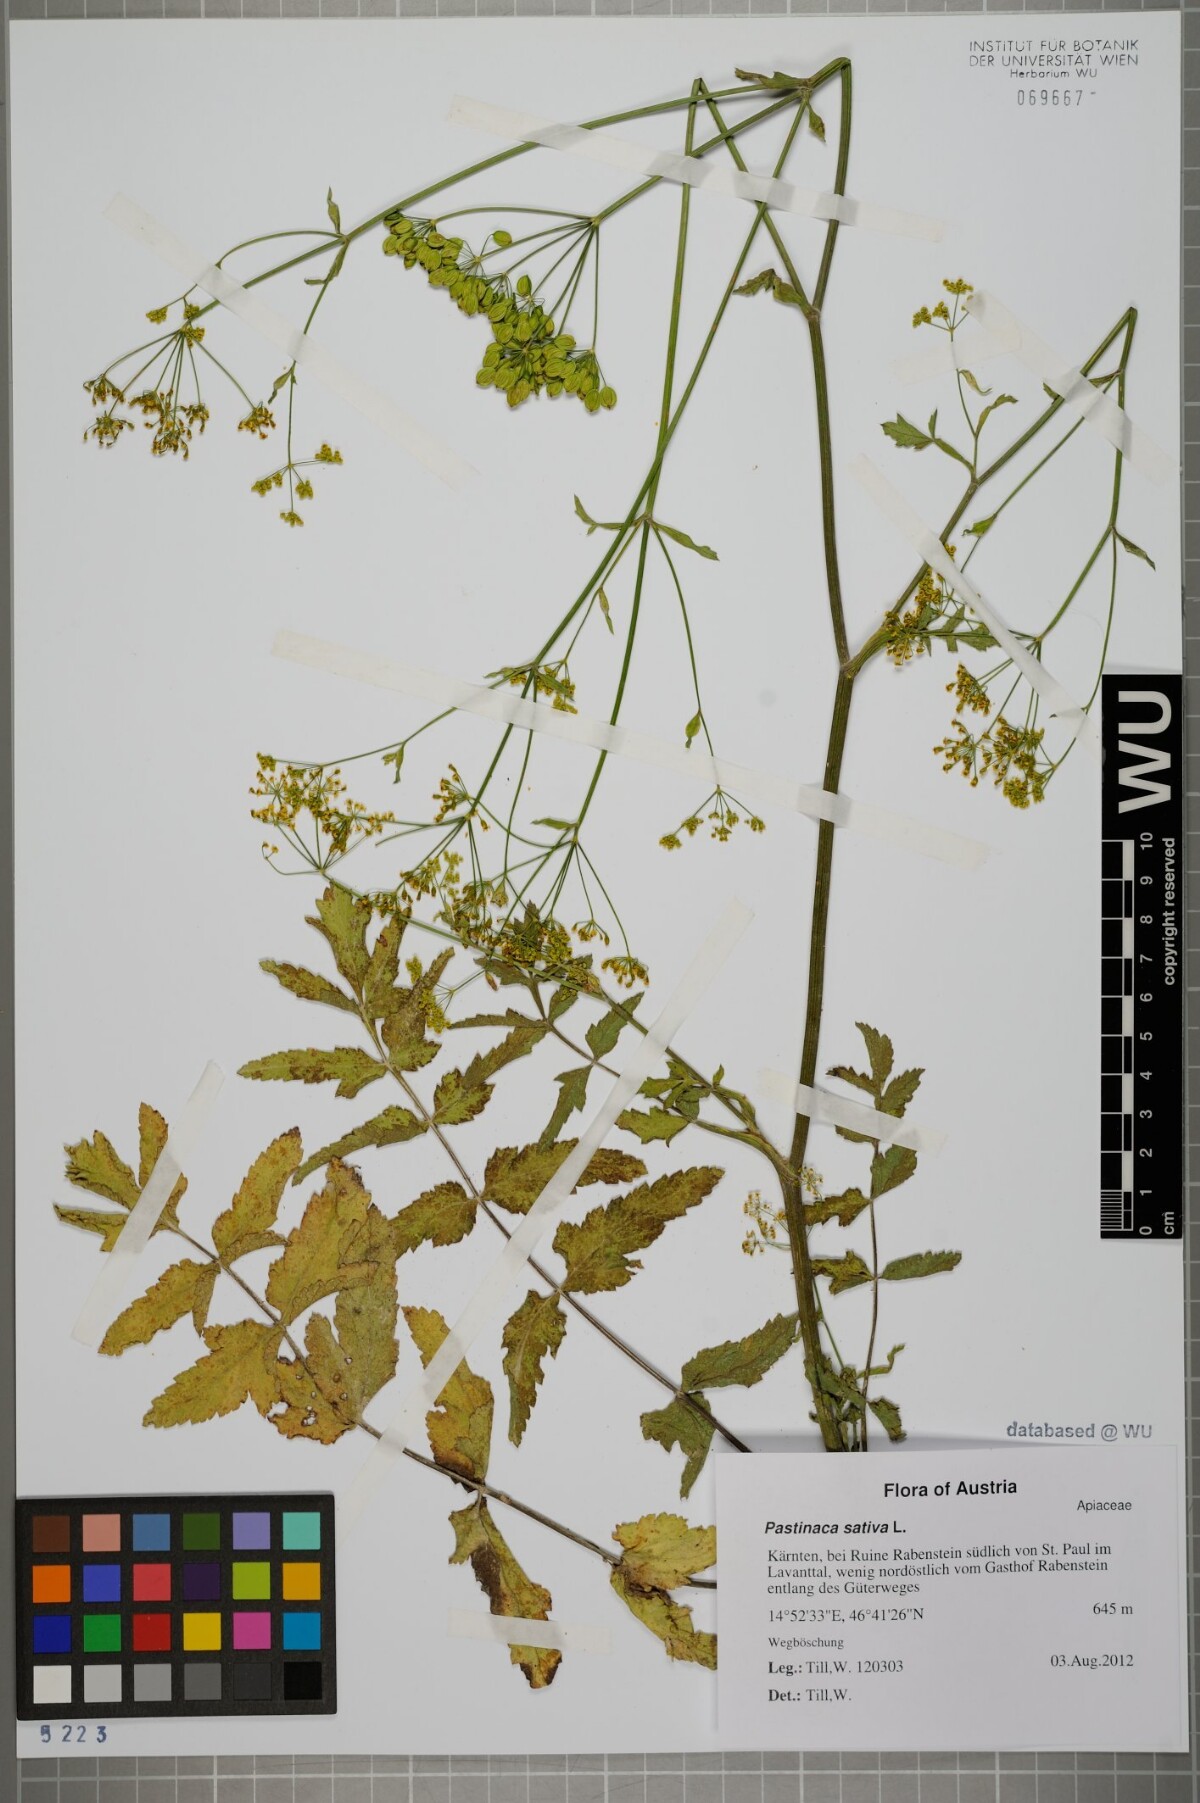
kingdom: Plantae
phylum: Tracheophyta
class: Magnoliopsida
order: Apiales
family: Apiaceae
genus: Pastinaca
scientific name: Pastinaca sativa
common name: Wild parsnip
